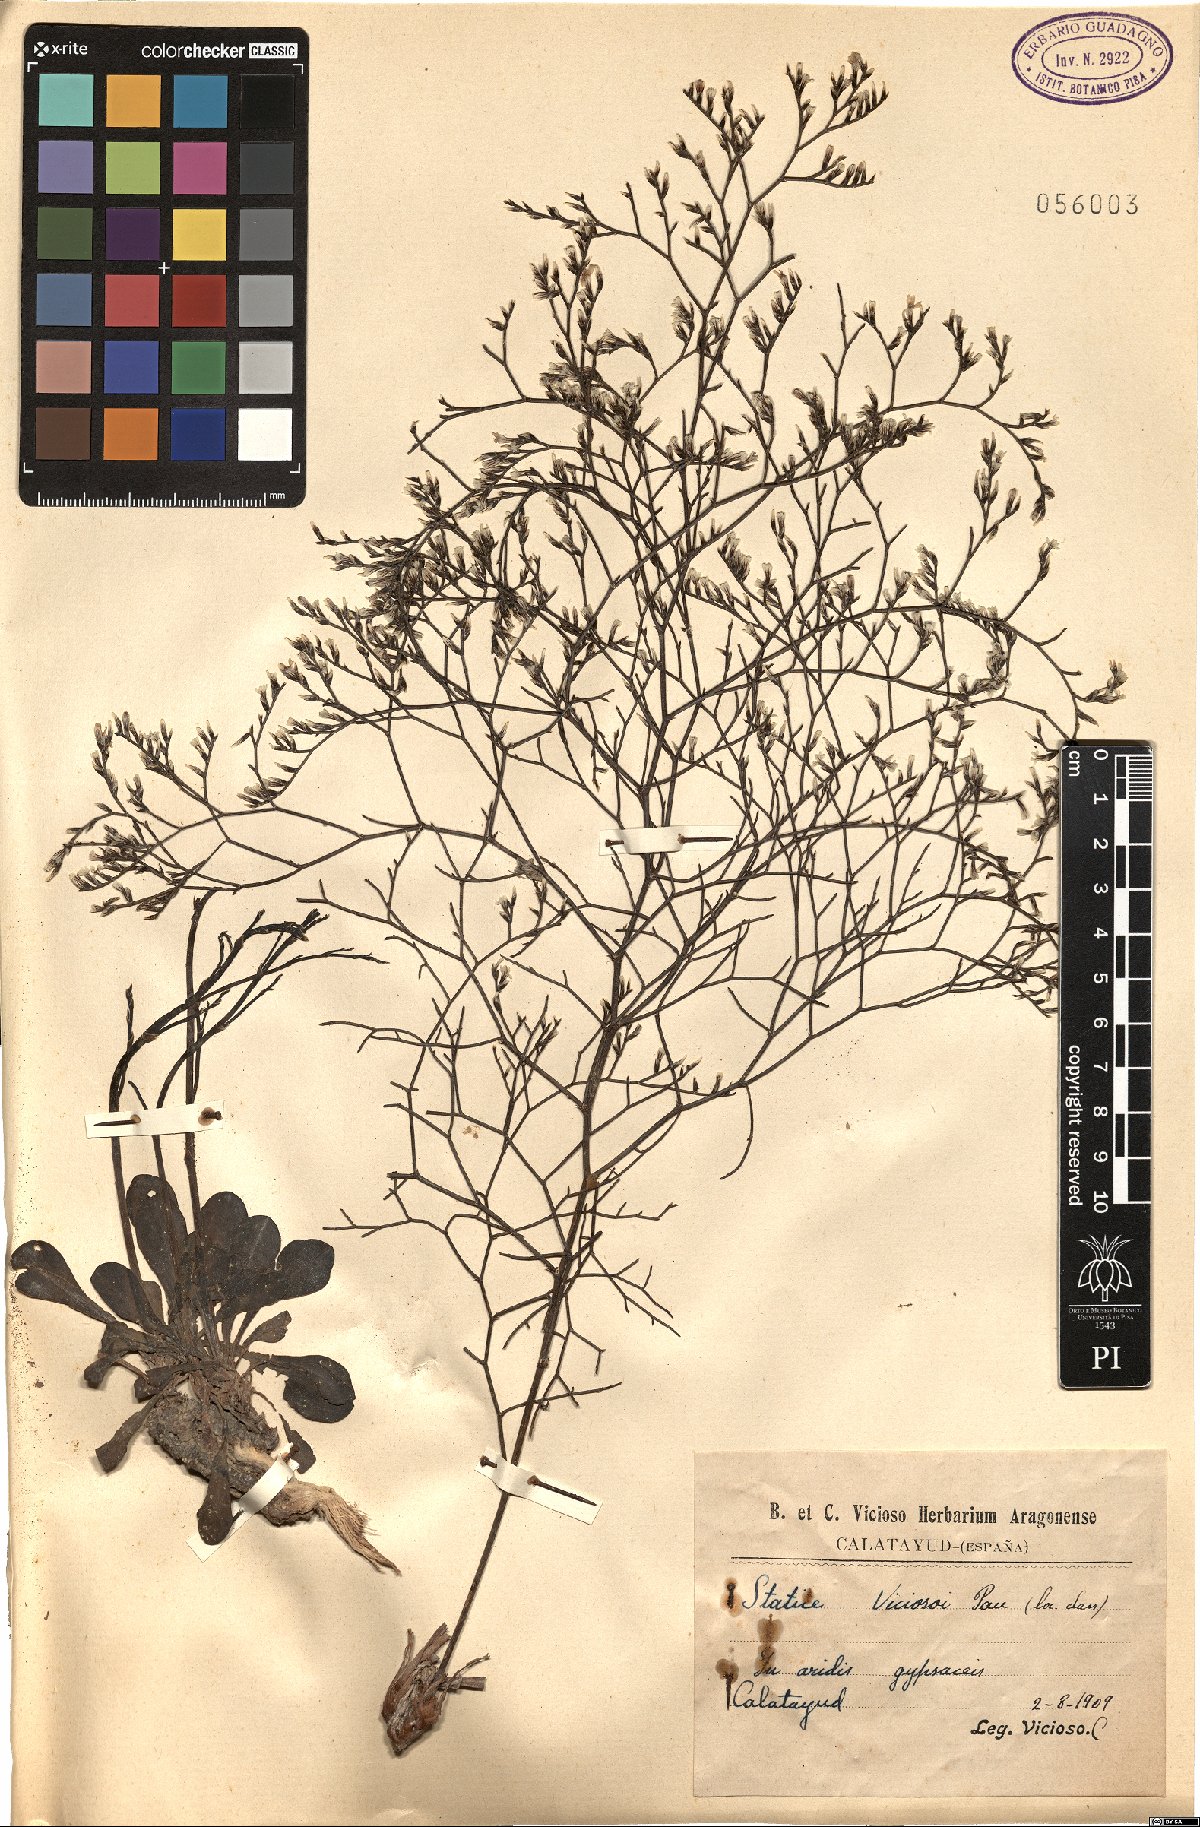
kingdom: Plantae
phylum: Tracheophyta
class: Magnoliopsida
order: Caryophyllales
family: Plumbaginaceae
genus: Limonium
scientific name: Limonium viciosoi
